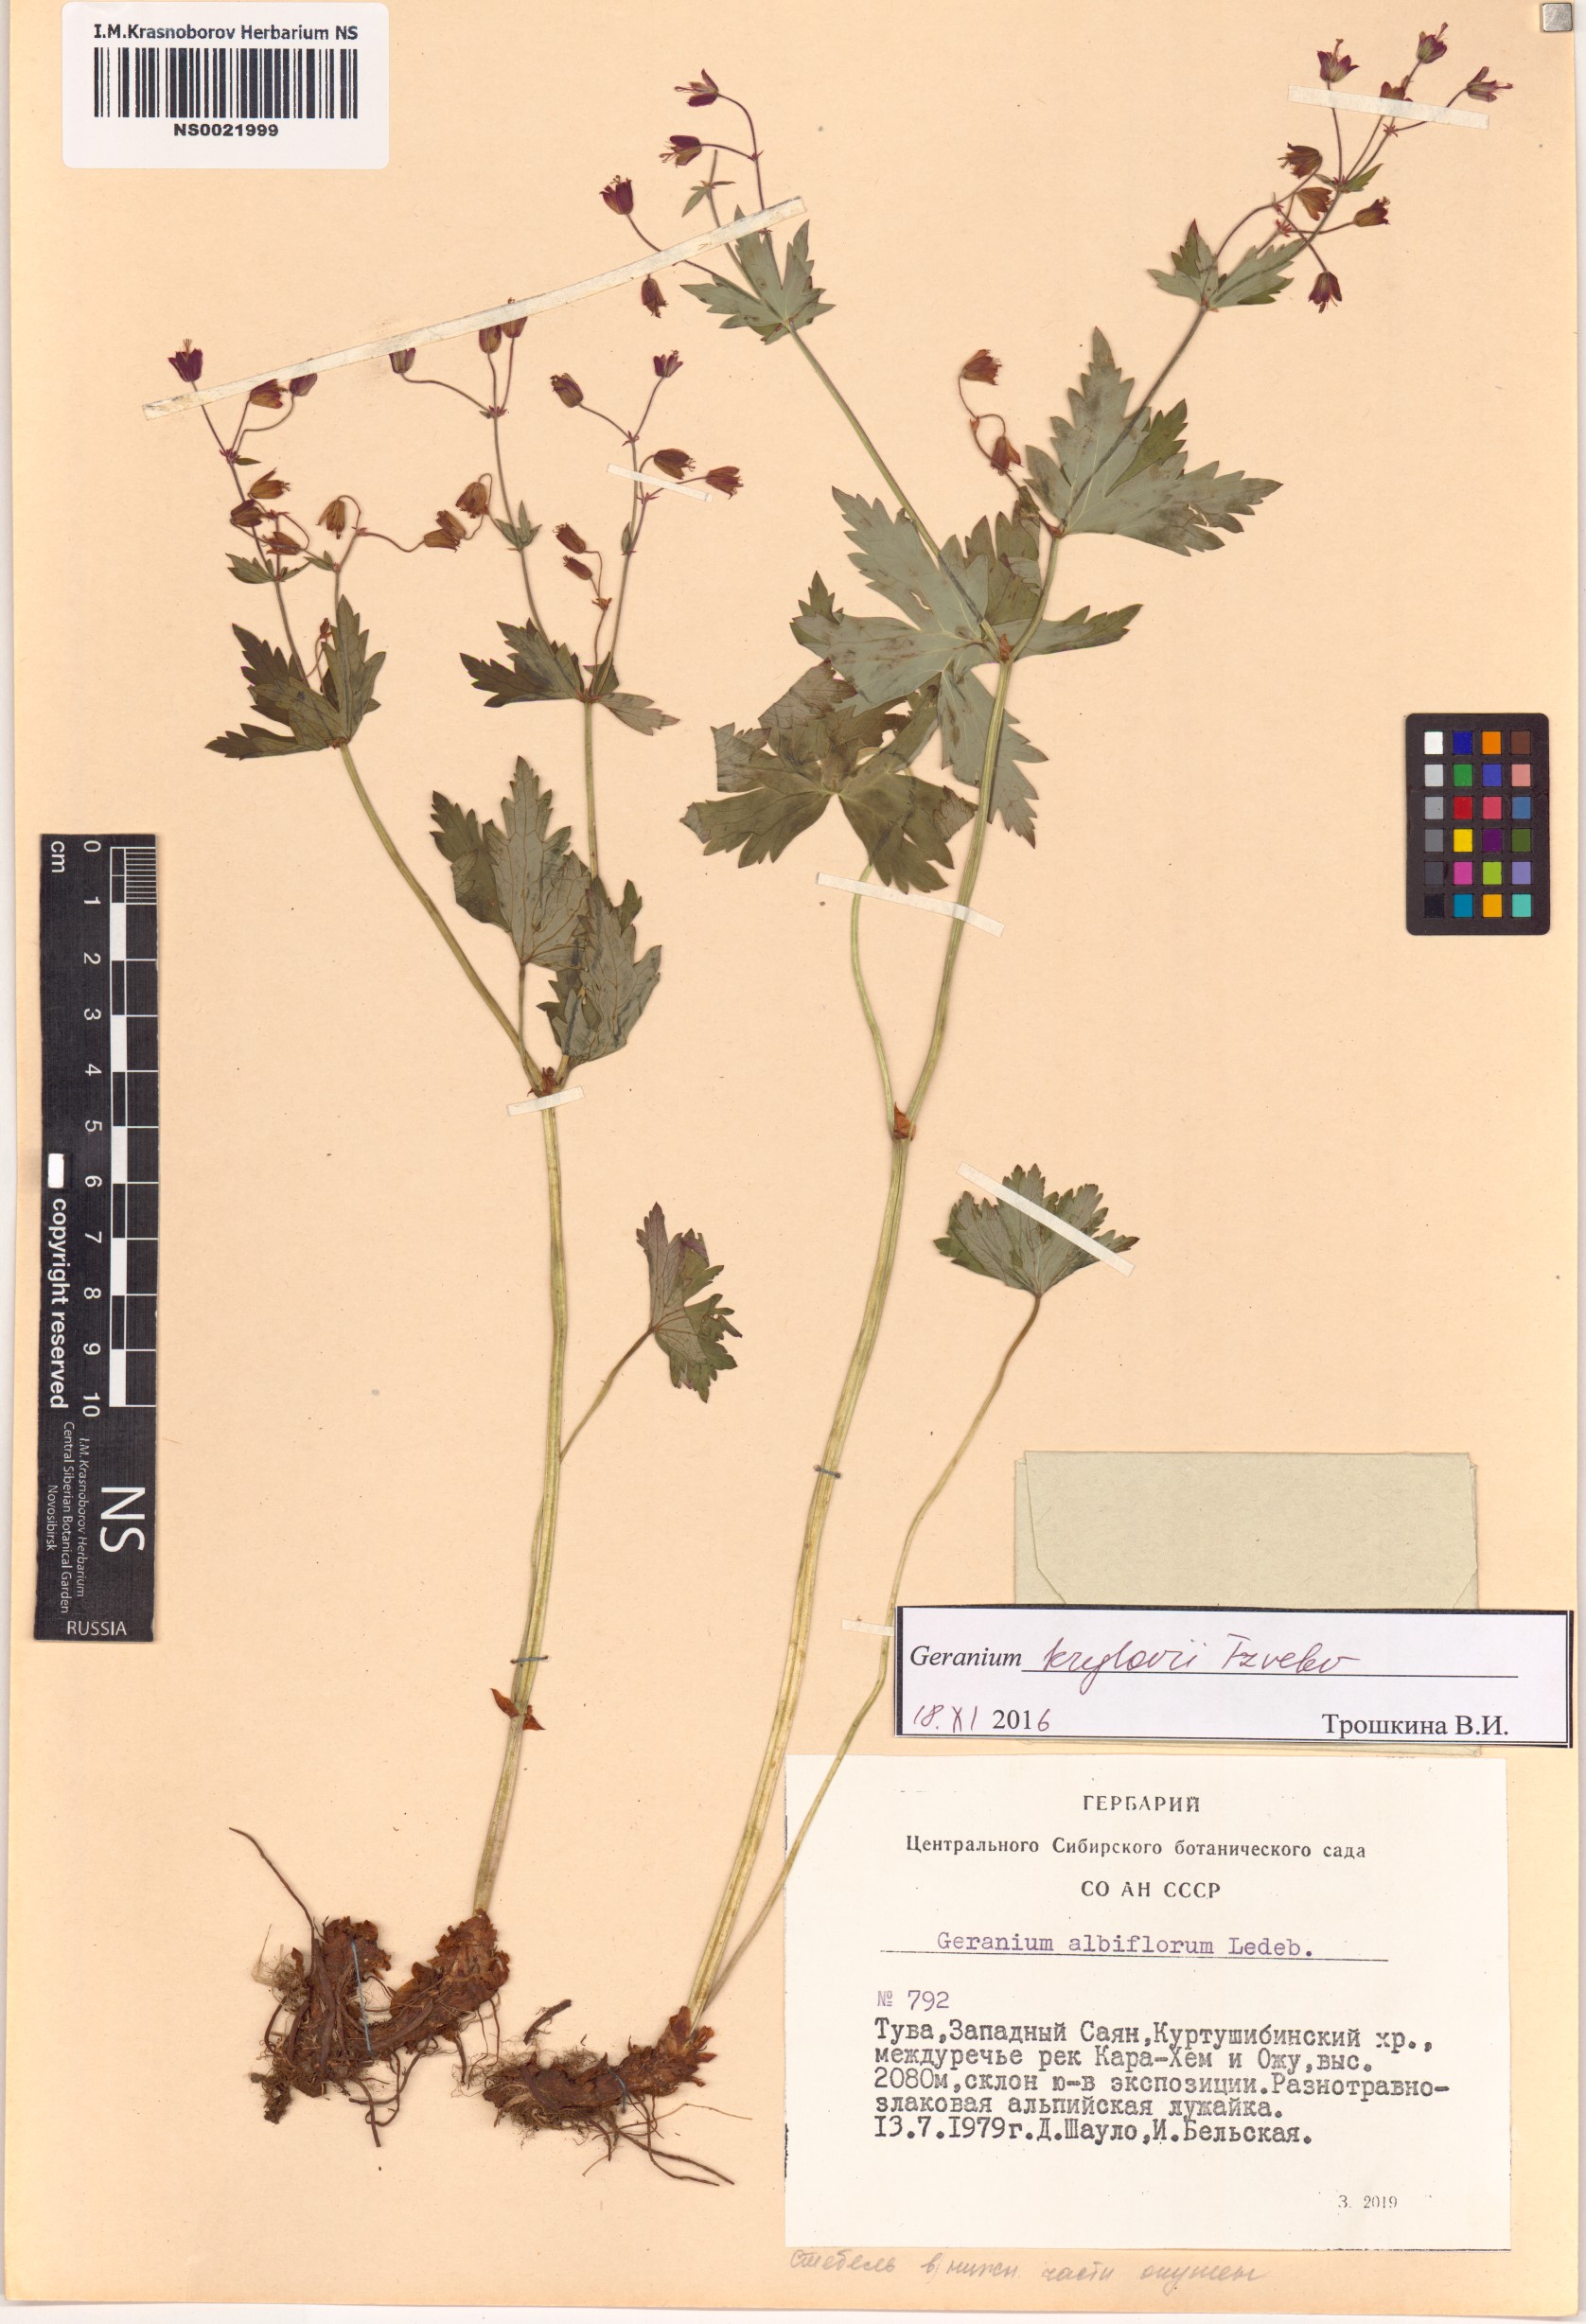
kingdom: Plantae
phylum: Tracheophyta
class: Magnoliopsida
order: Geraniales
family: Geraniaceae
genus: Geranium
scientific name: Geranium sylvaticum
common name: Wood crane's-bill
